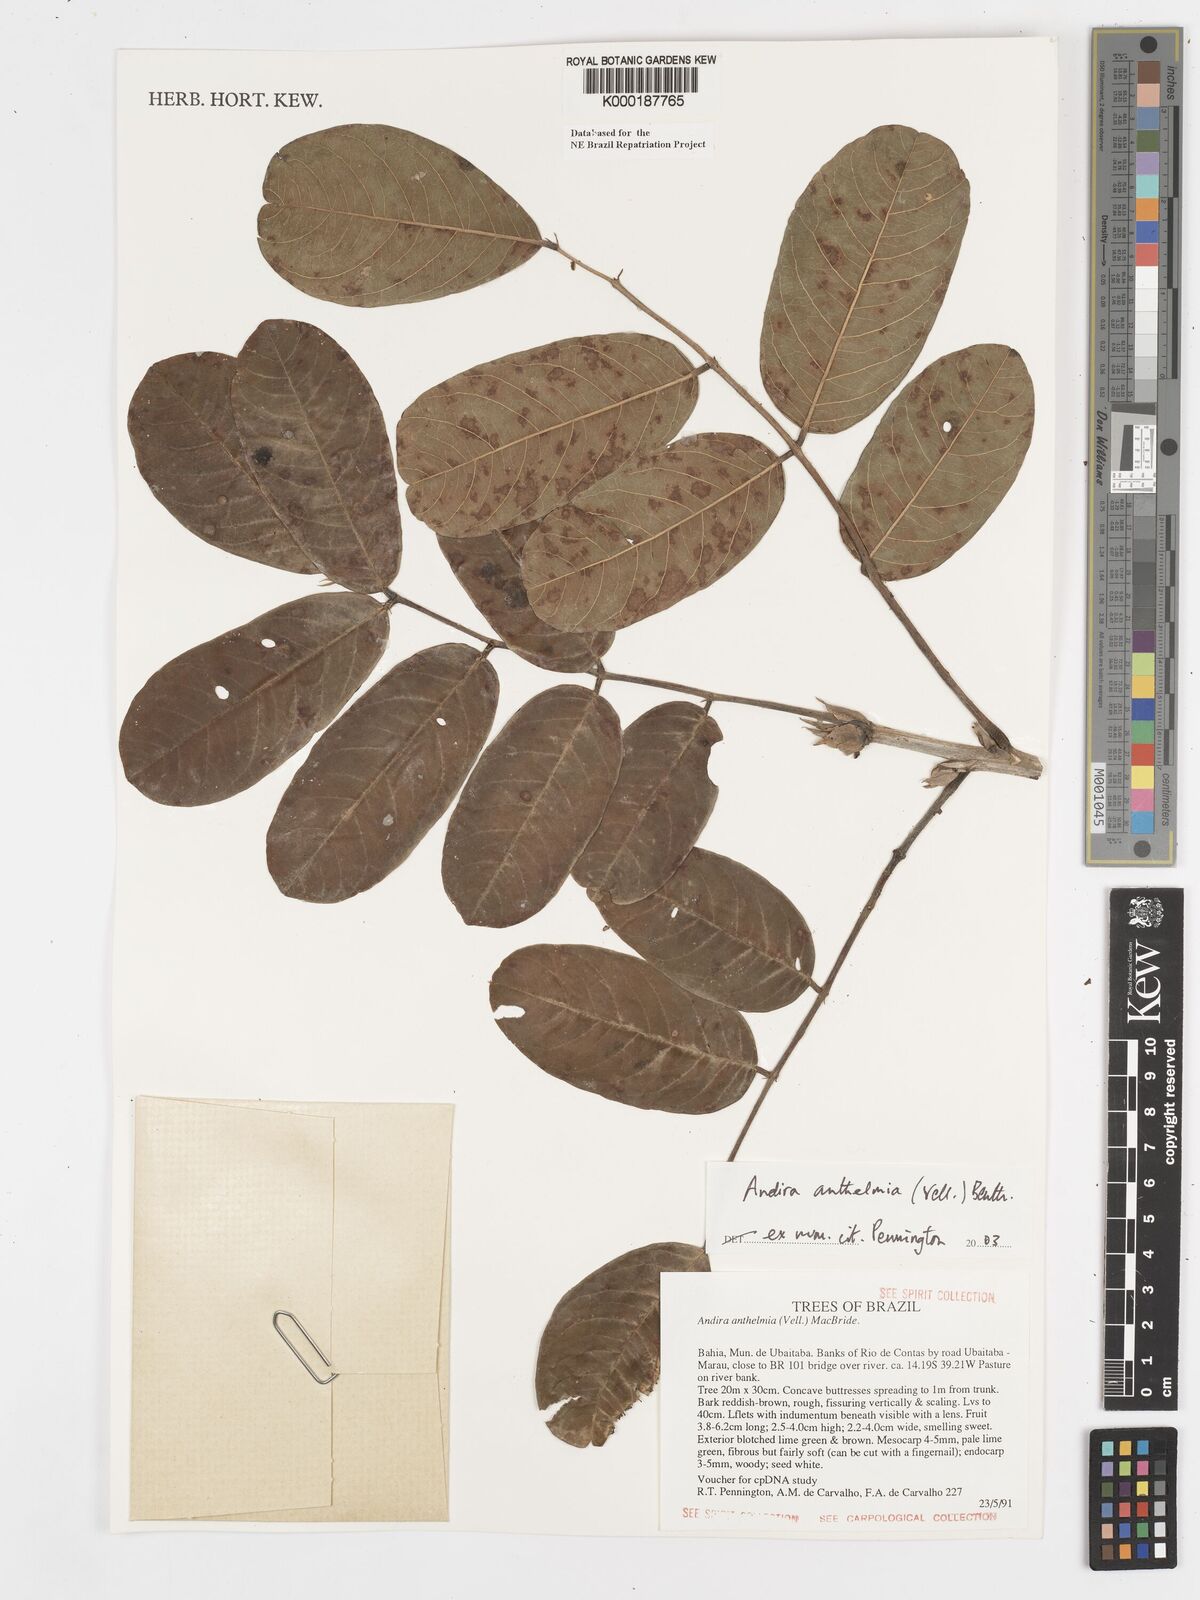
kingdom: Plantae
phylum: Tracheophyta
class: Magnoliopsida
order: Fabales
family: Fabaceae
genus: Andira
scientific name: Andira
